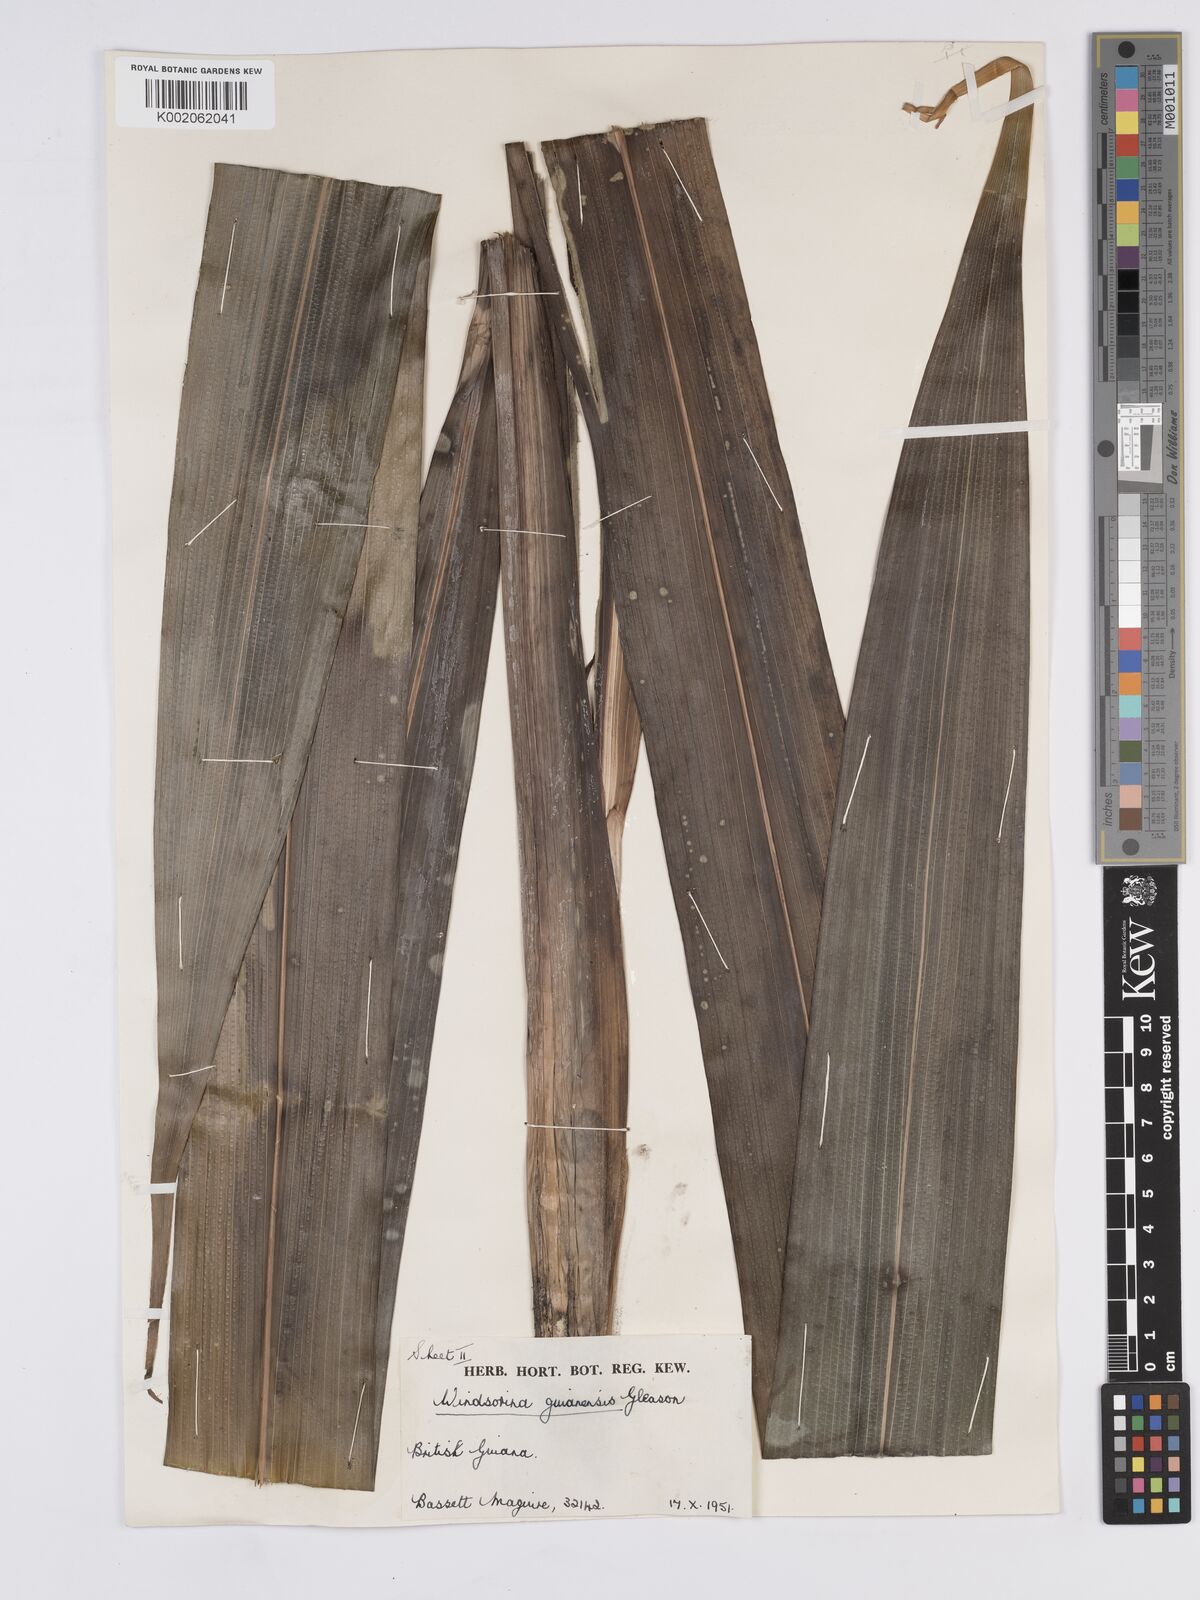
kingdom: Plantae
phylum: Tracheophyta
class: Liliopsida
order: Poales
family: Rapateaceae
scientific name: Rapateaceae
